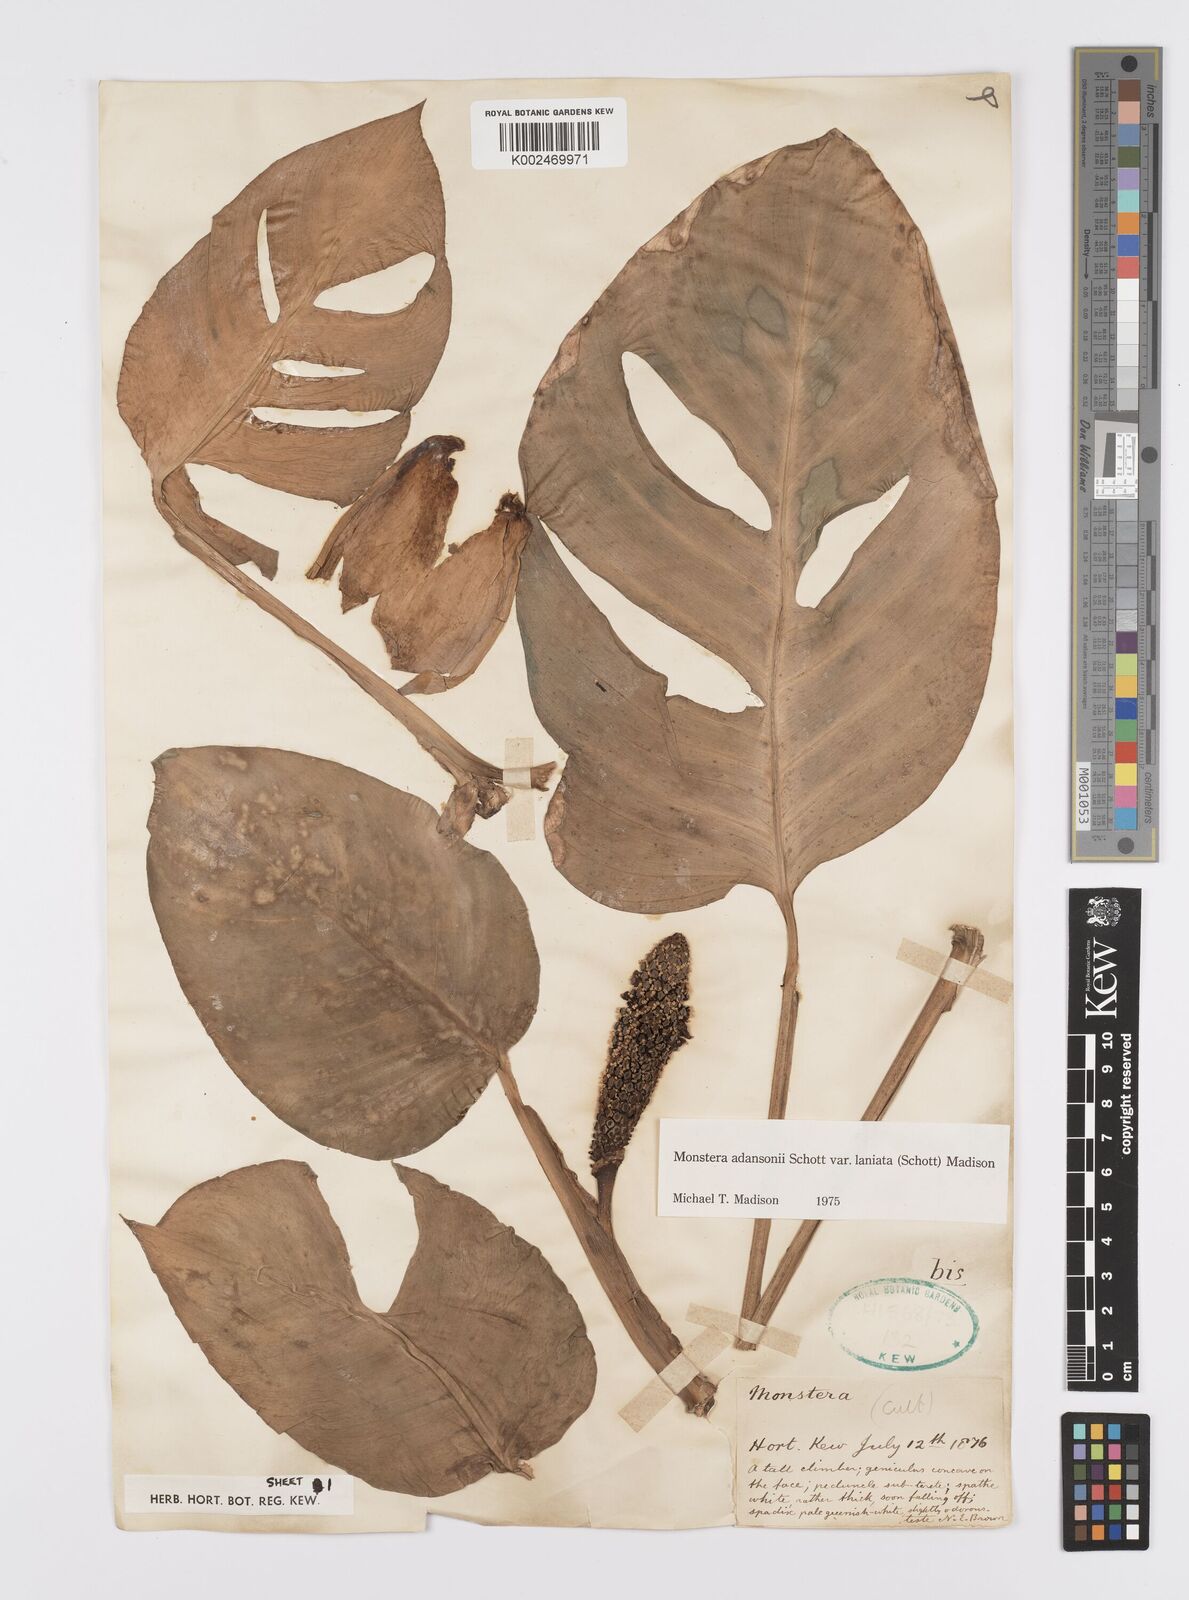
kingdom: Plantae
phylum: Tracheophyta
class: Liliopsida
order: Alismatales
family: Araceae
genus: Monstera
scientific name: Monstera adansonii
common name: Tarovine
